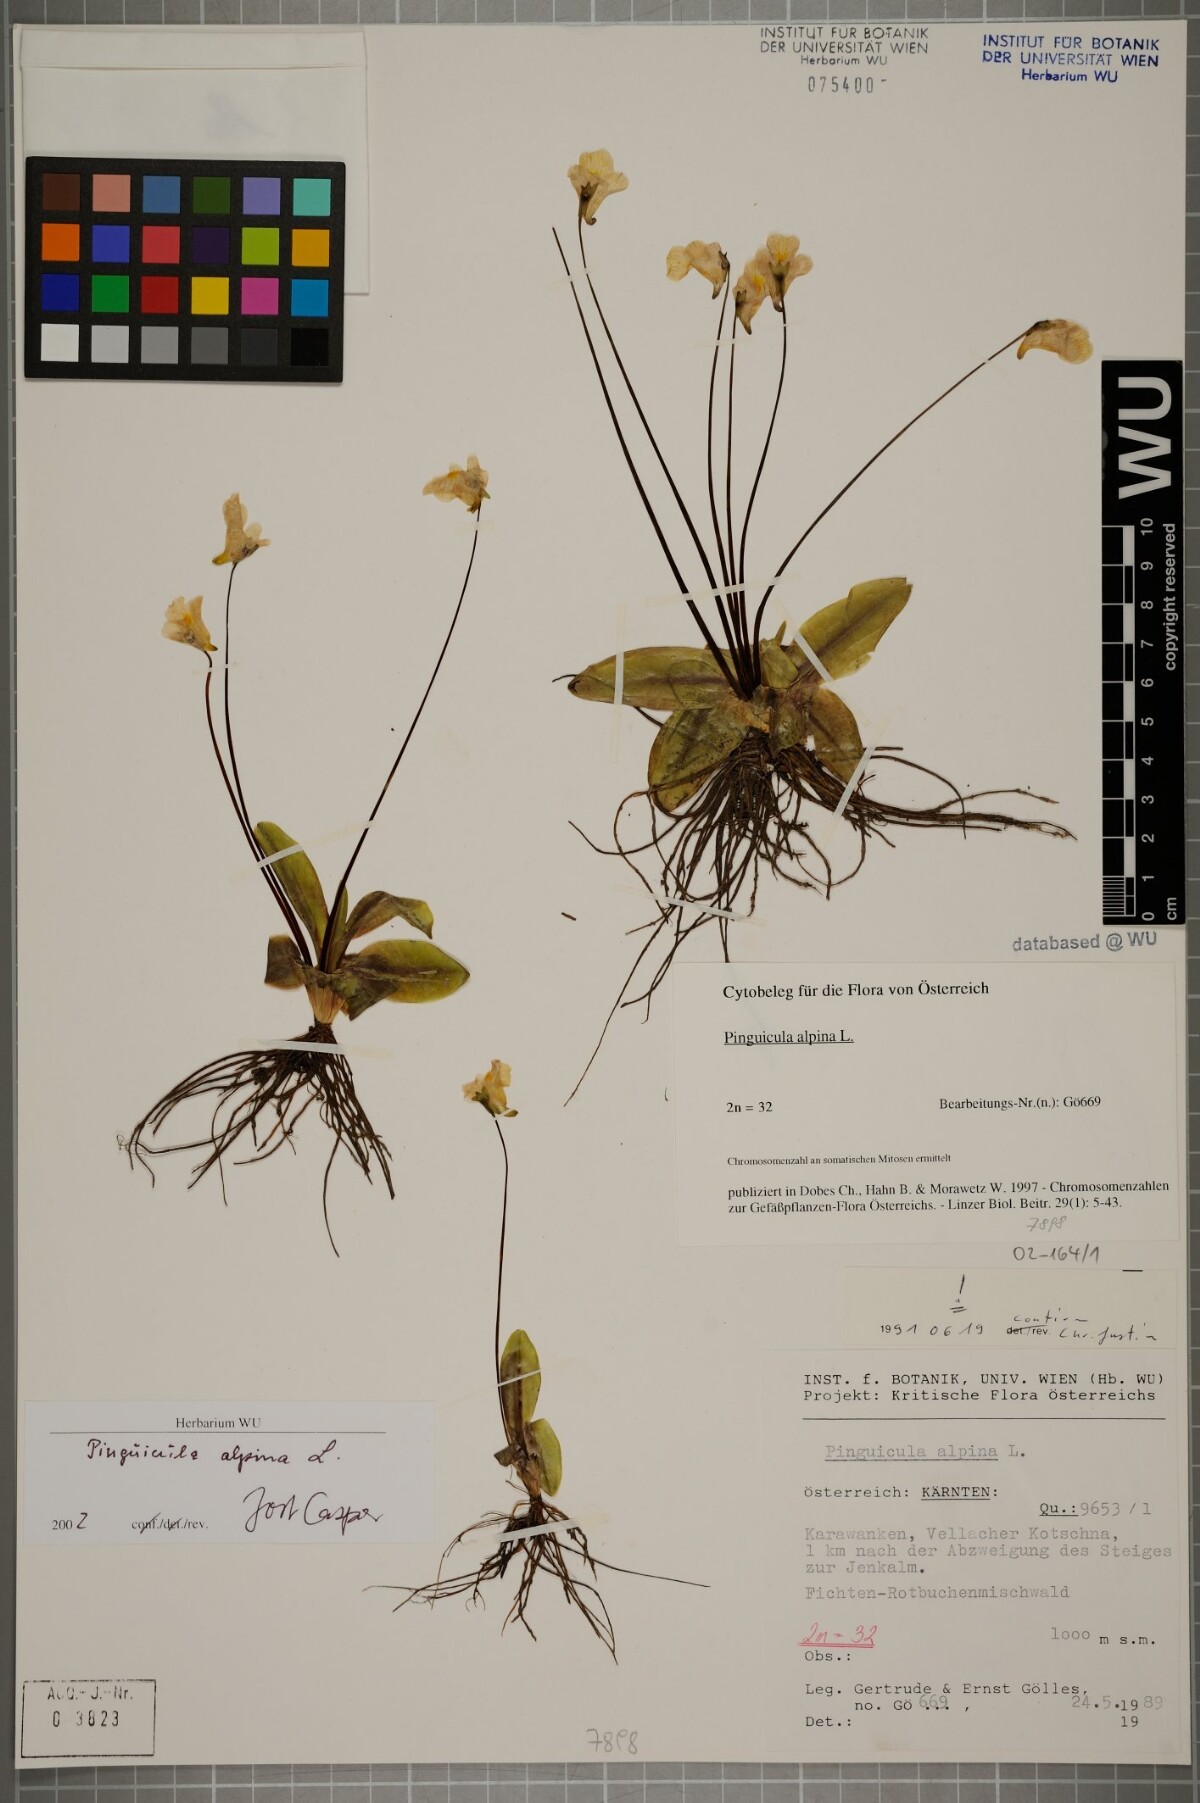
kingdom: Plantae
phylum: Tracheophyta
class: Magnoliopsida
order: Lamiales
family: Lentibulariaceae
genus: Pinguicula
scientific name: Pinguicula alpina
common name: Alpine butterwort
